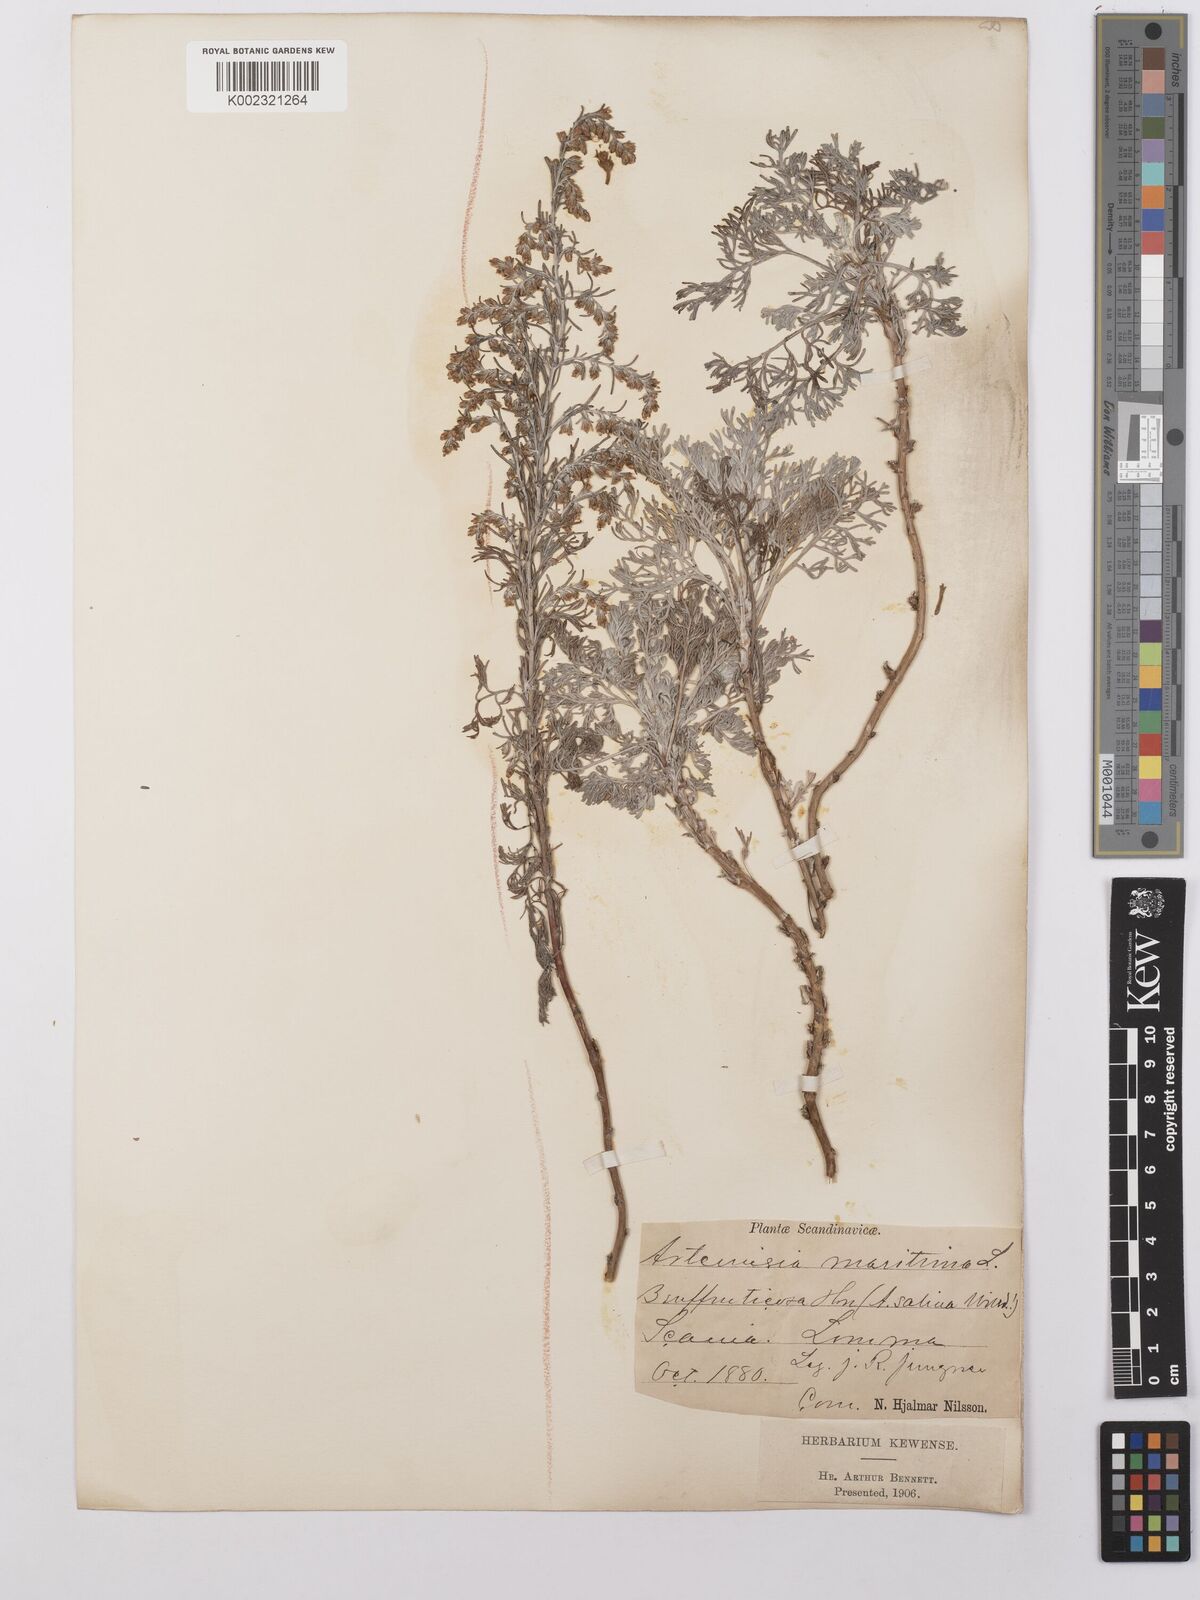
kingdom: Plantae
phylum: Tracheophyta
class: Magnoliopsida
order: Asterales
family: Asteraceae
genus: Artemisia
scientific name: Artemisia maritima
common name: Wormseed
